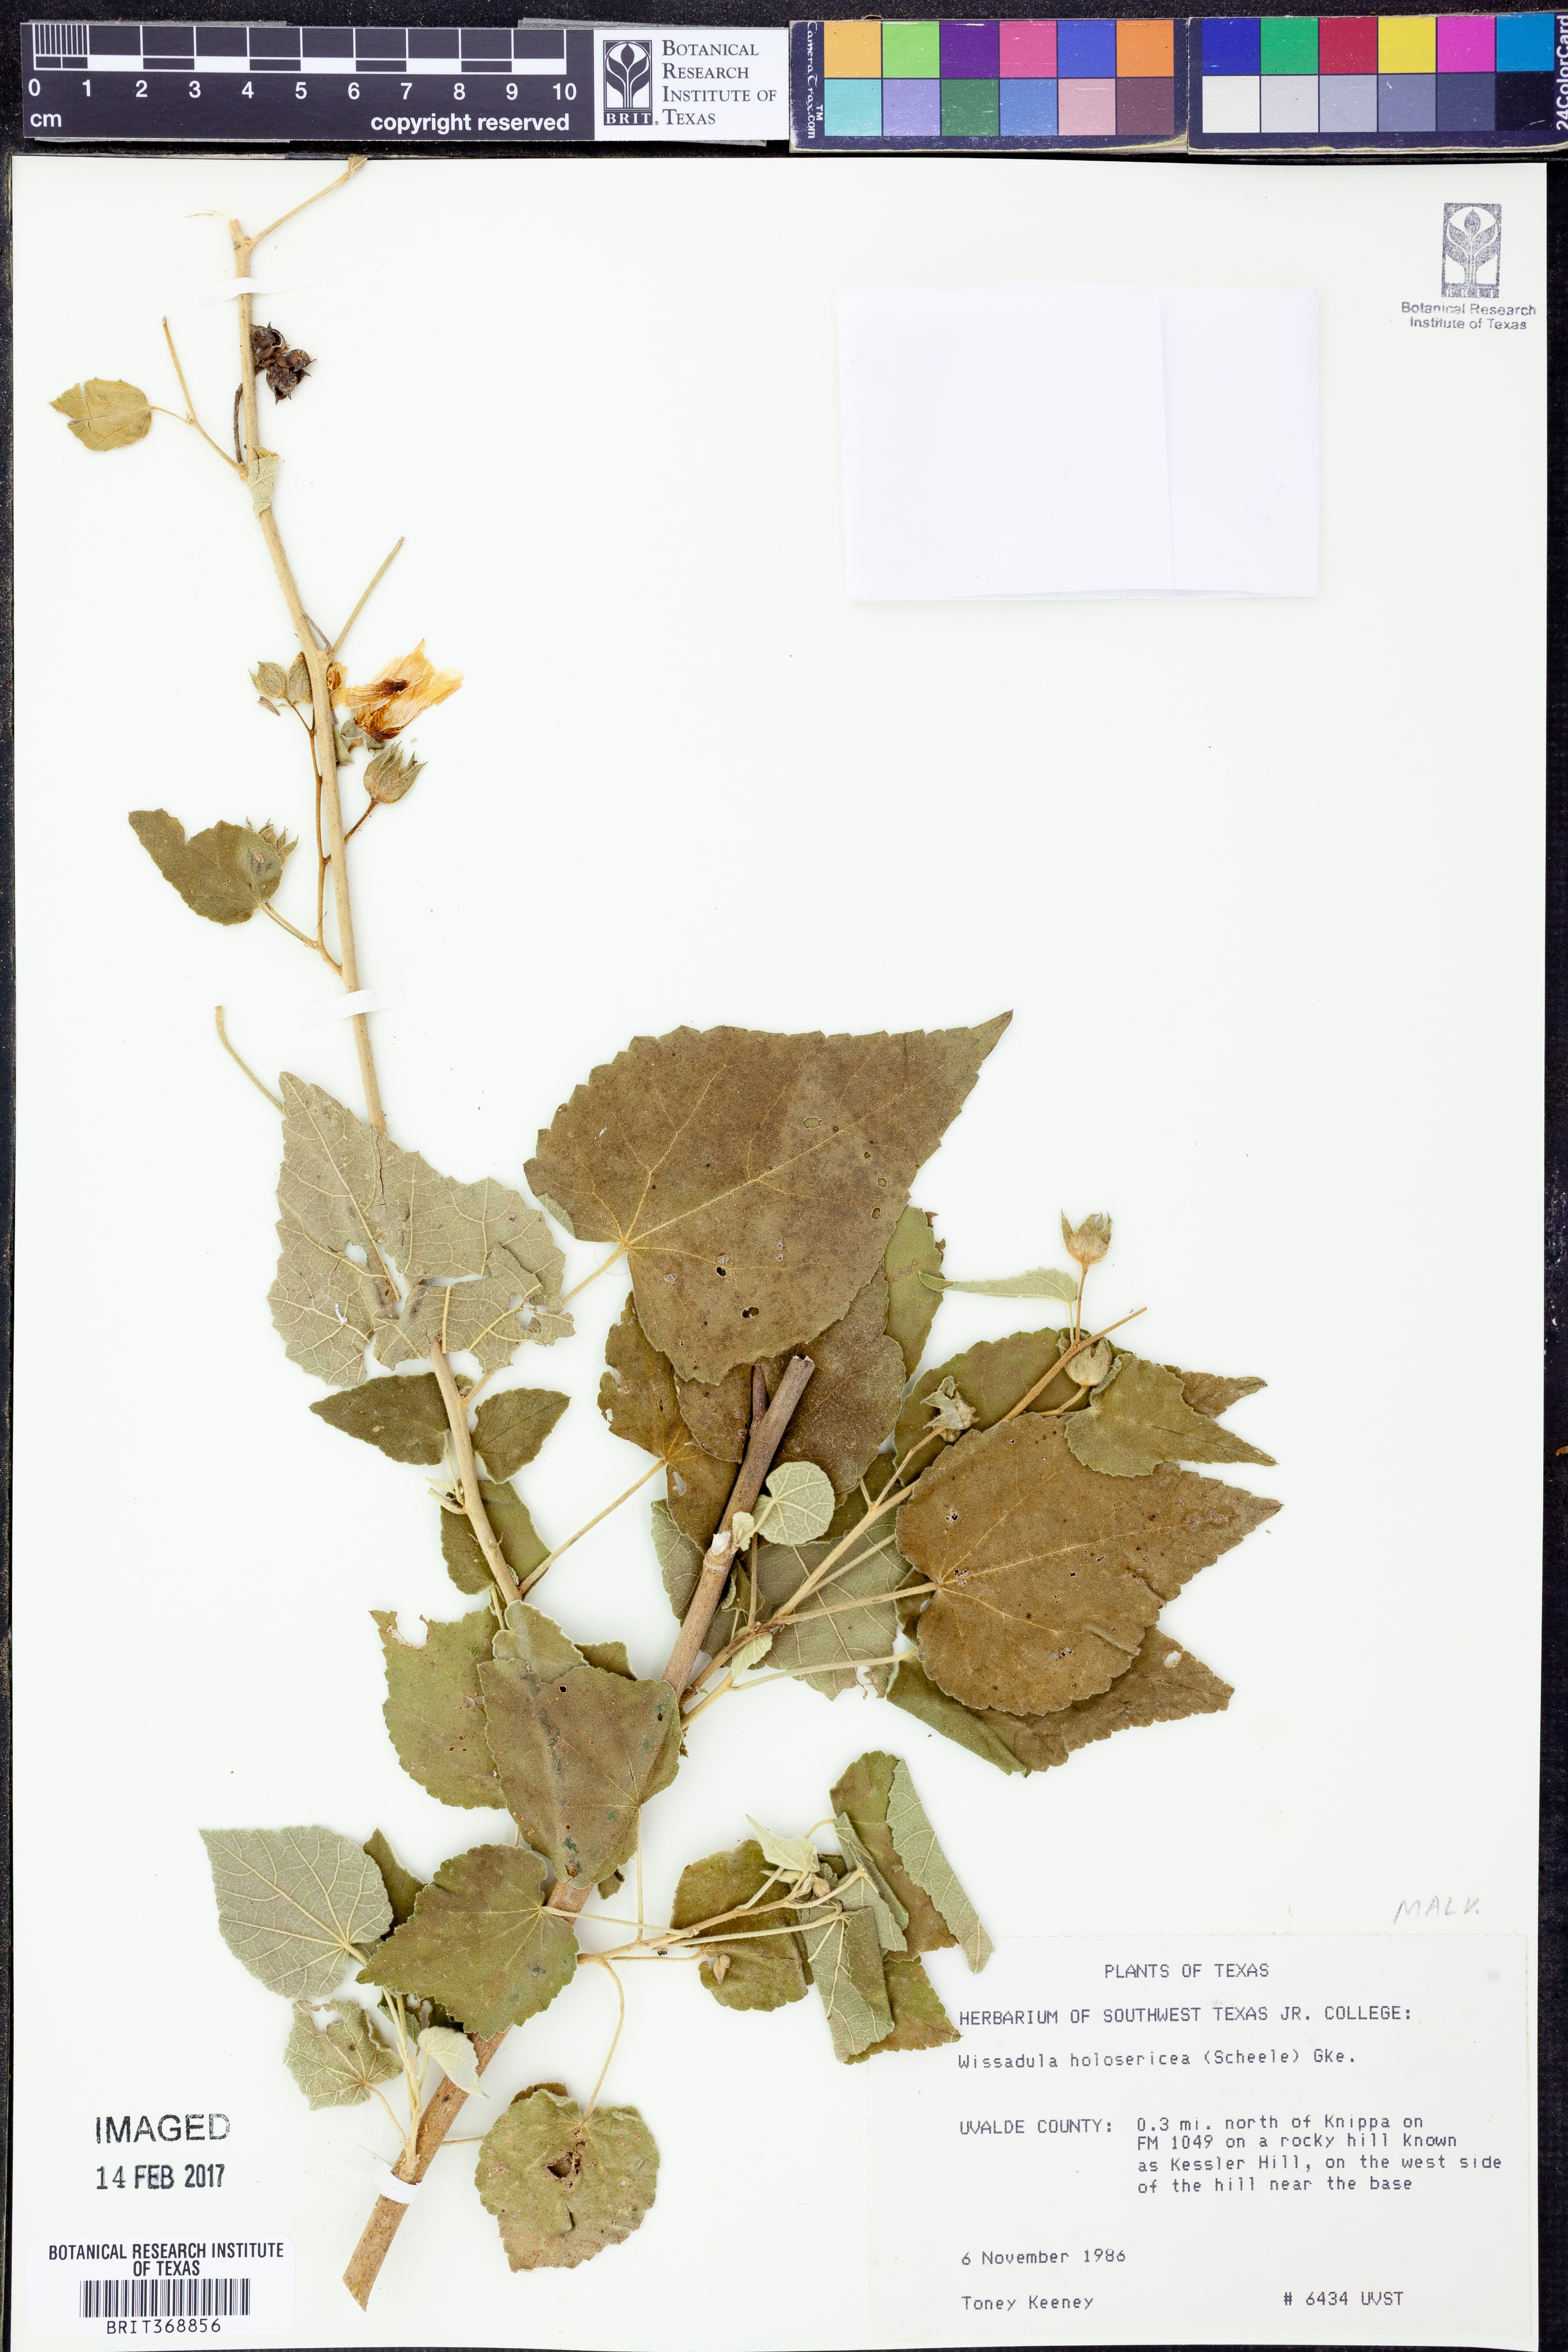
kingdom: Plantae
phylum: Tracheophyta
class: Magnoliopsida
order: Malvales
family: Malvaceae
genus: Allowissadula
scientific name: Allowissadula holosericea
